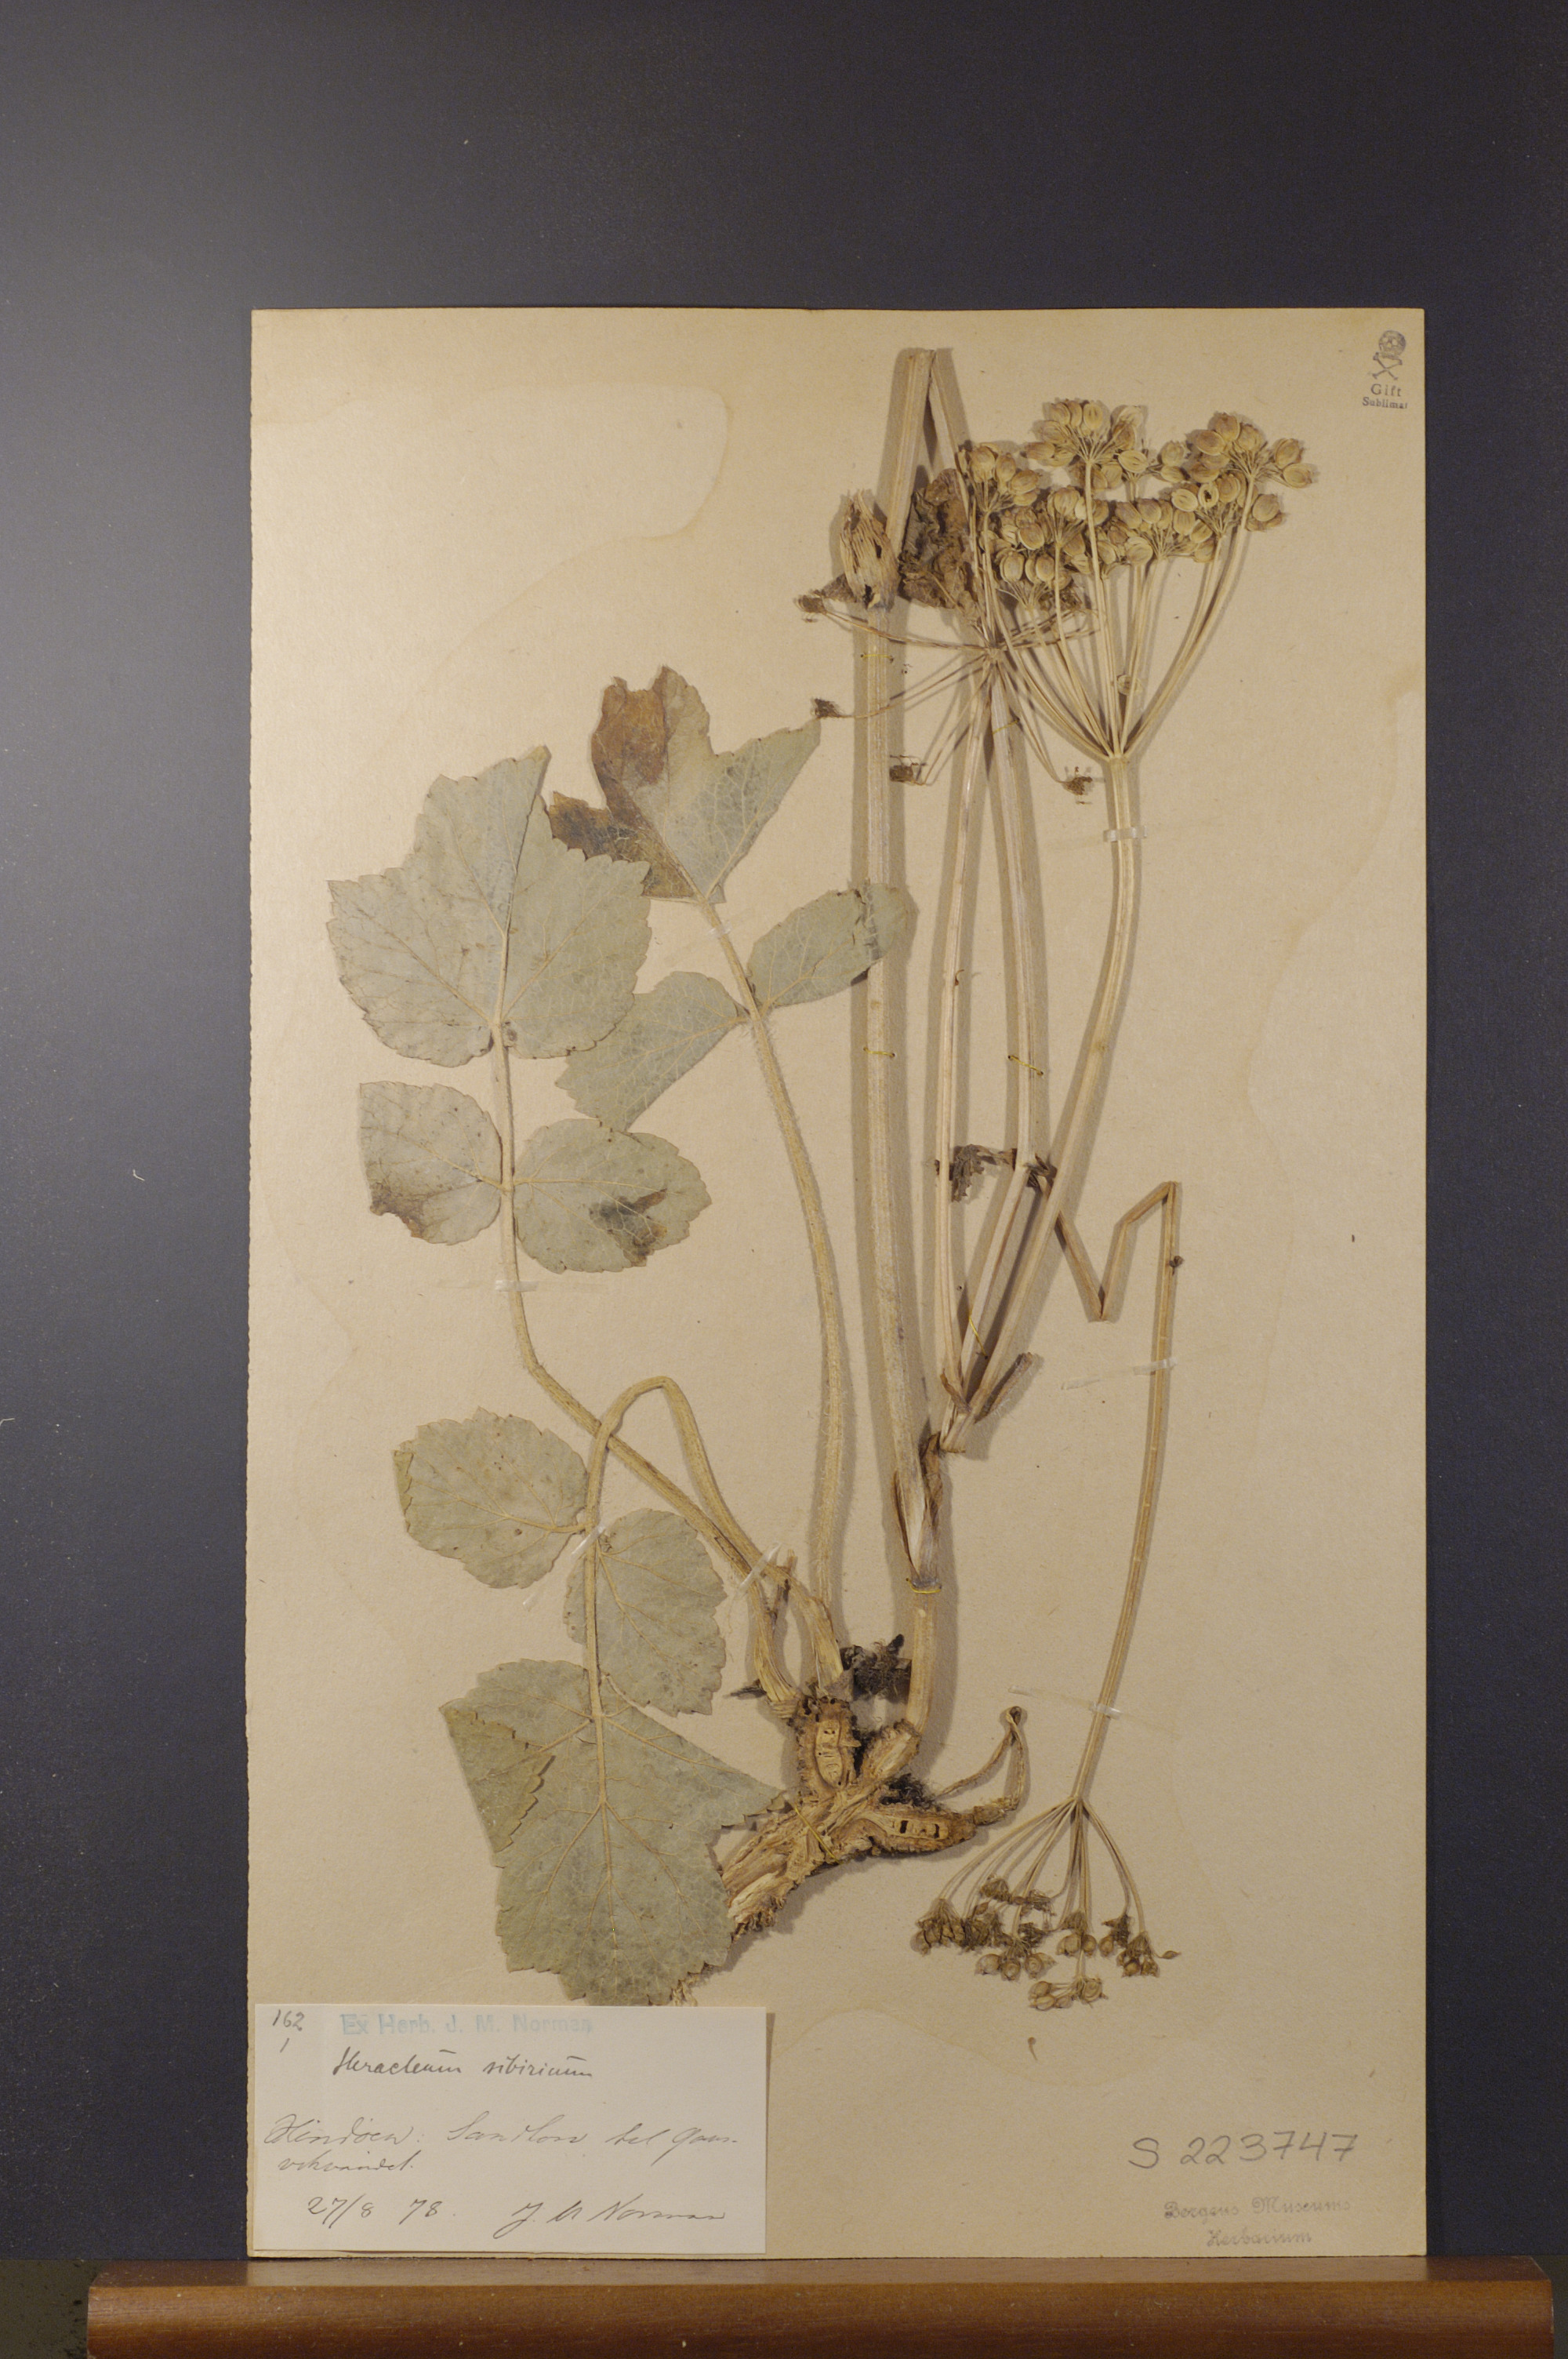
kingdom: Plantae
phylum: Tracheophyta
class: Magnoliopsida
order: Apiales
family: Apiaceae
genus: Heracleum
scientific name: Heracleum sphondylium
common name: Hogweed
